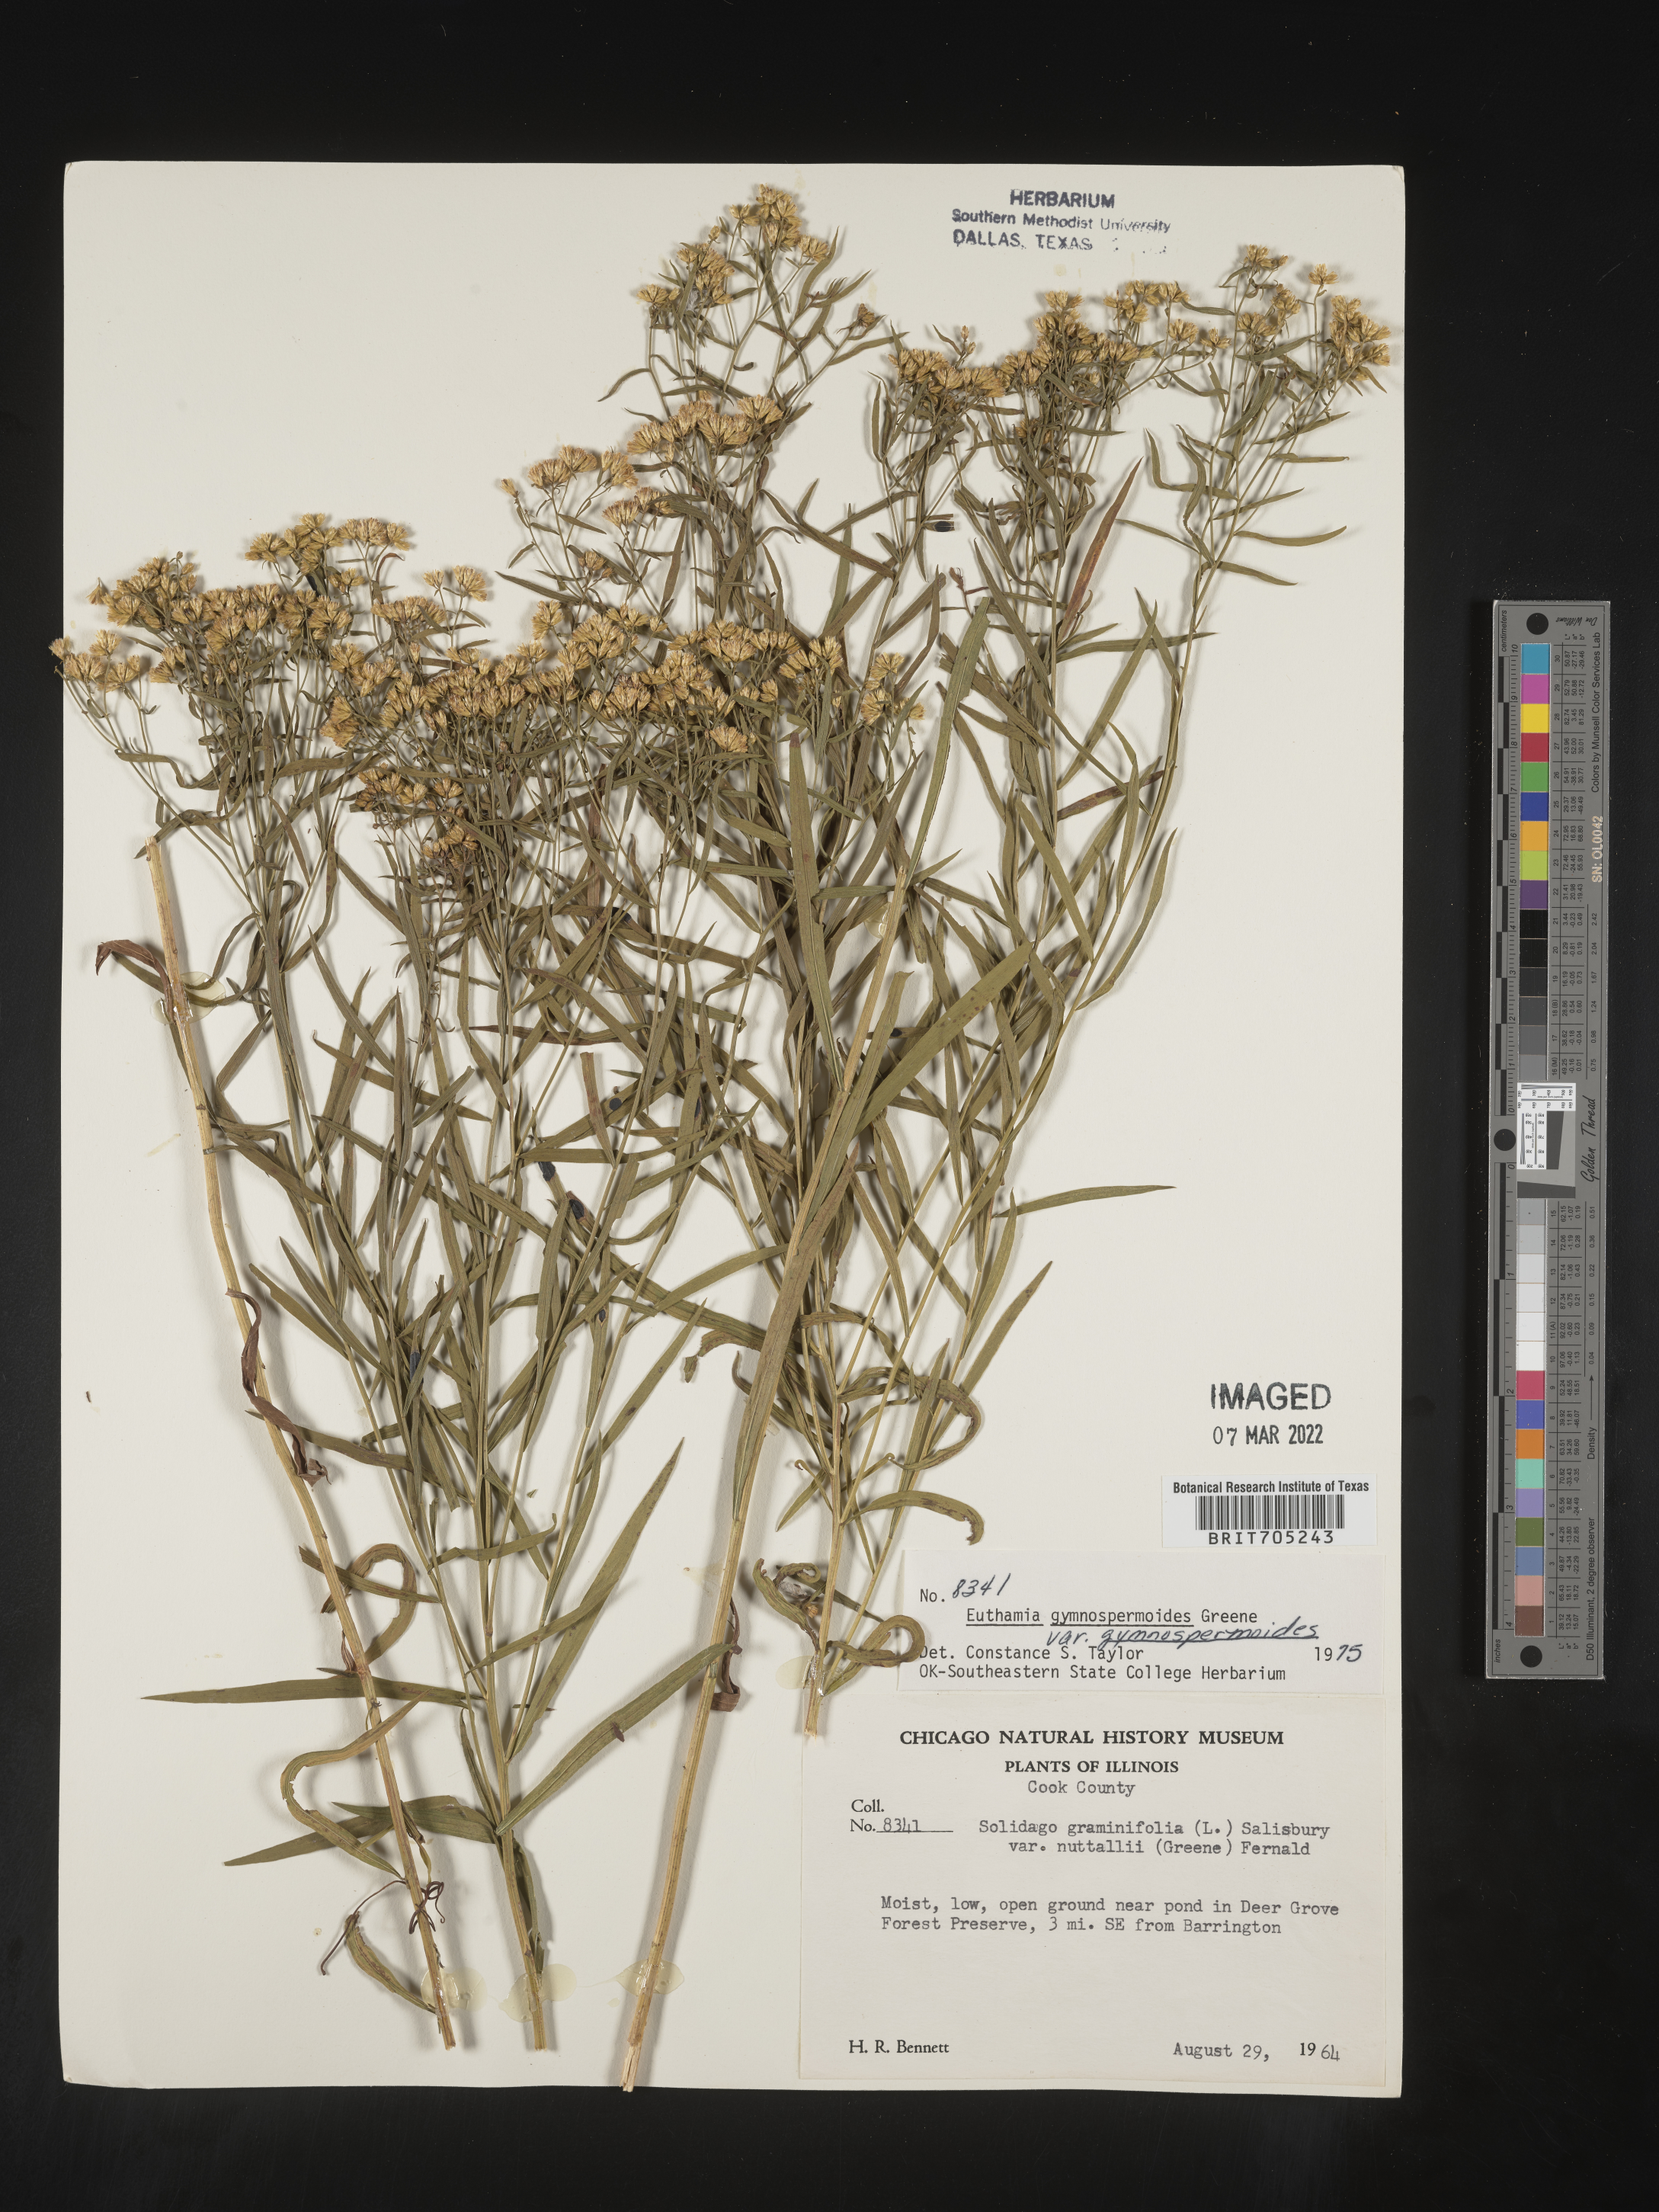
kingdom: Plantae
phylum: Tracheophyta
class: Magnoliopsida
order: Asterales
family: Asteraceae
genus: Euthamia
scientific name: Euthamia gymnospermoides
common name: Great plains goldentop
